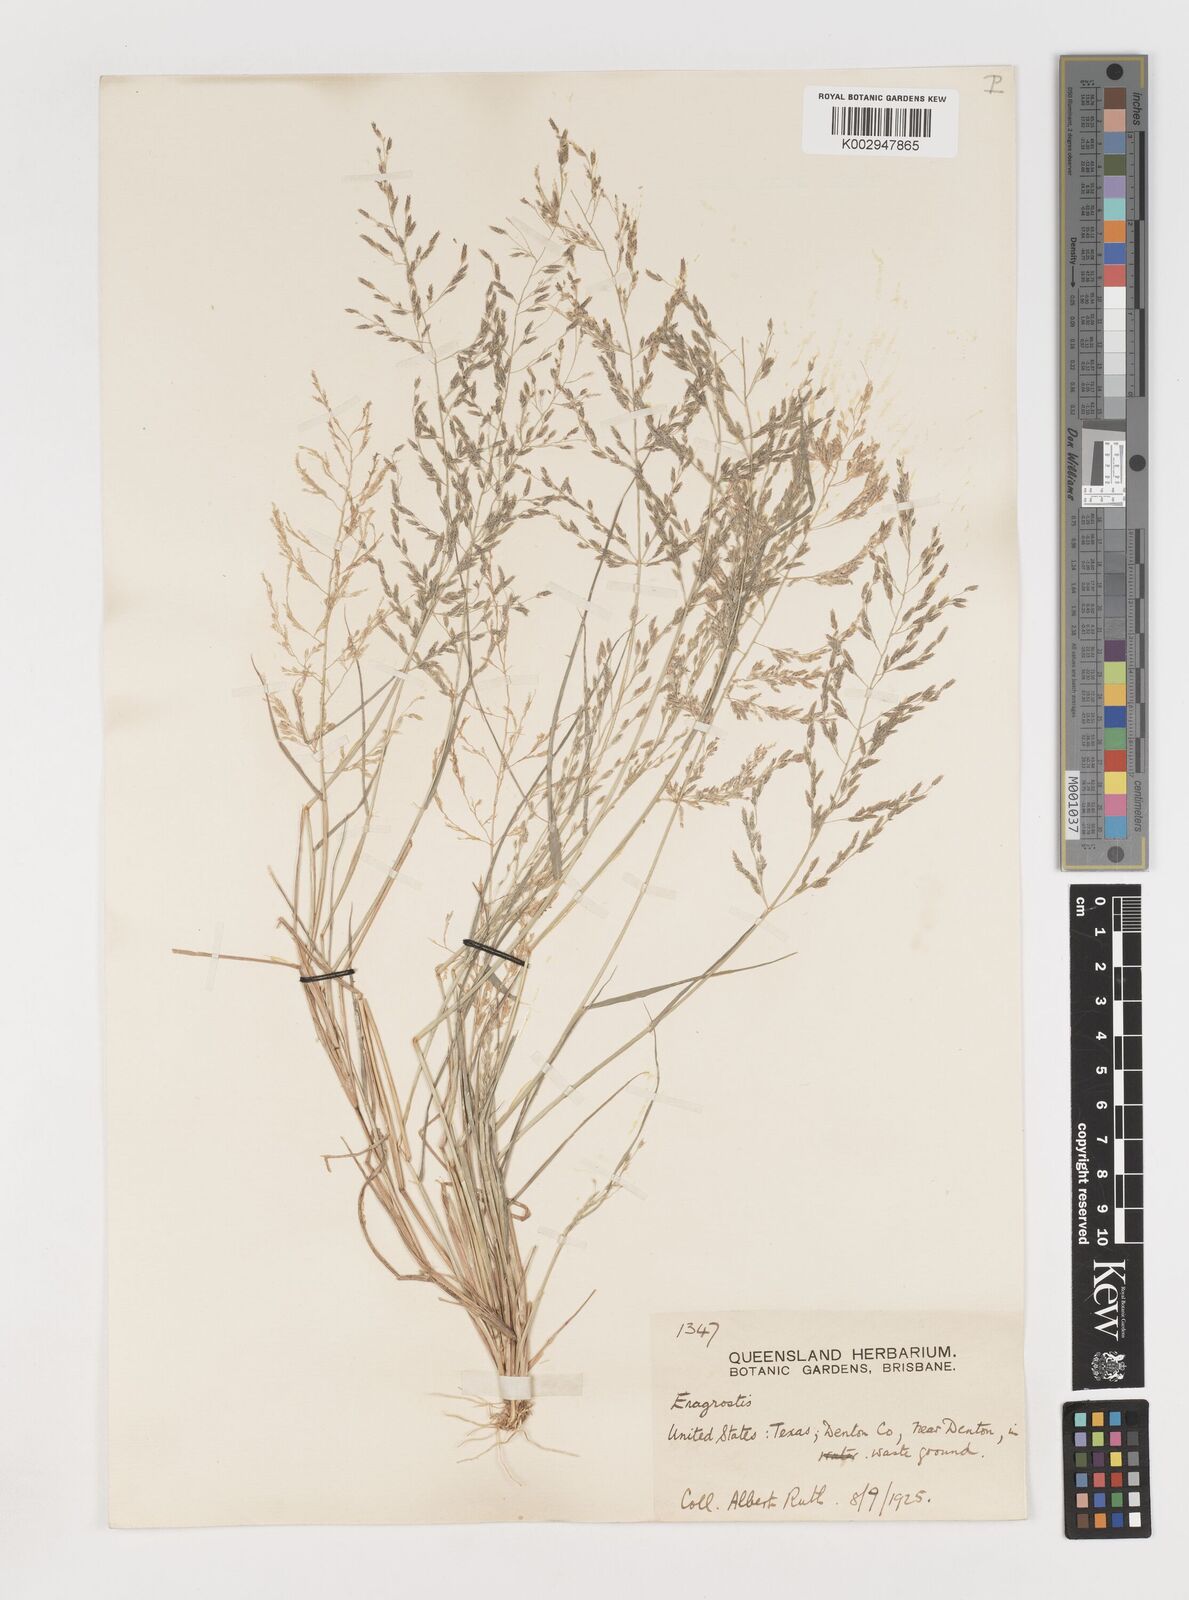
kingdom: Plantae
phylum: Tracheophyta
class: Liliopsida
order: Poales
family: Poaceae
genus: Eragrostis
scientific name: Eragrostis pectinacea
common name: Tufted lovegrass
